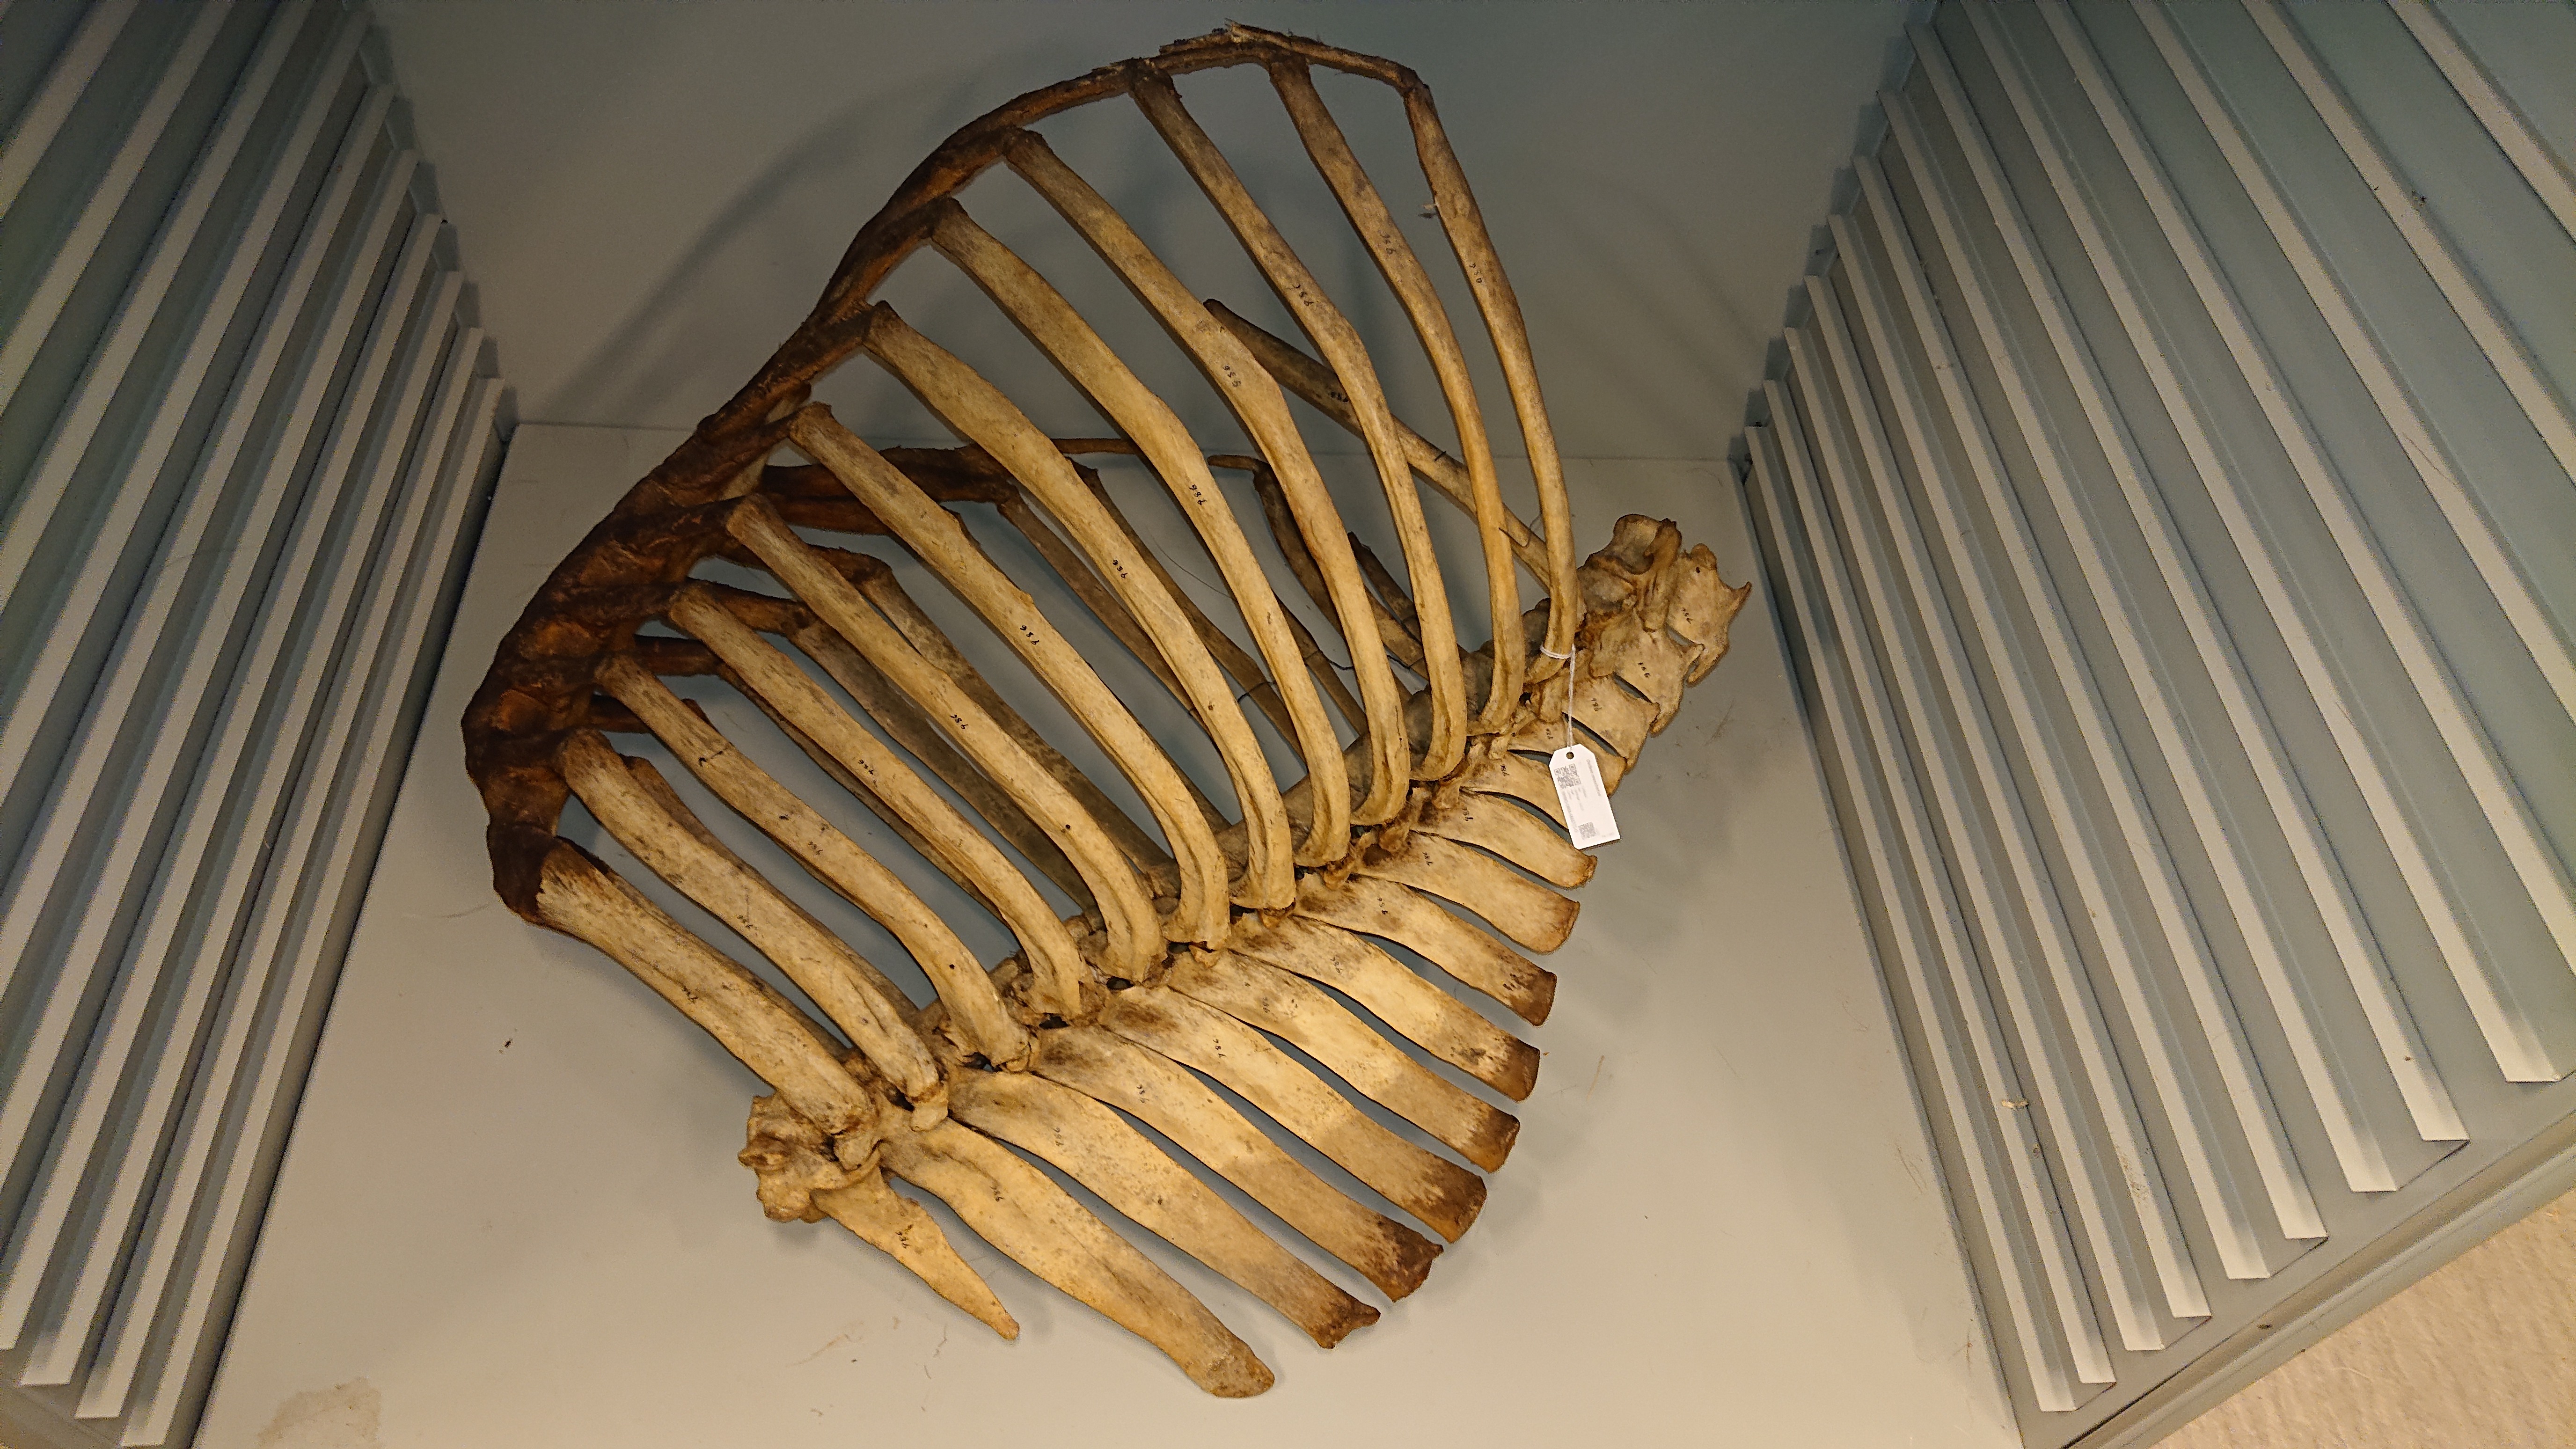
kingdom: Animalia
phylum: Chordata
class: Mammalia
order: Artiodactyla
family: Bovidae
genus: Ovibos
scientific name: Ovibos moschatus
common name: Muskox
